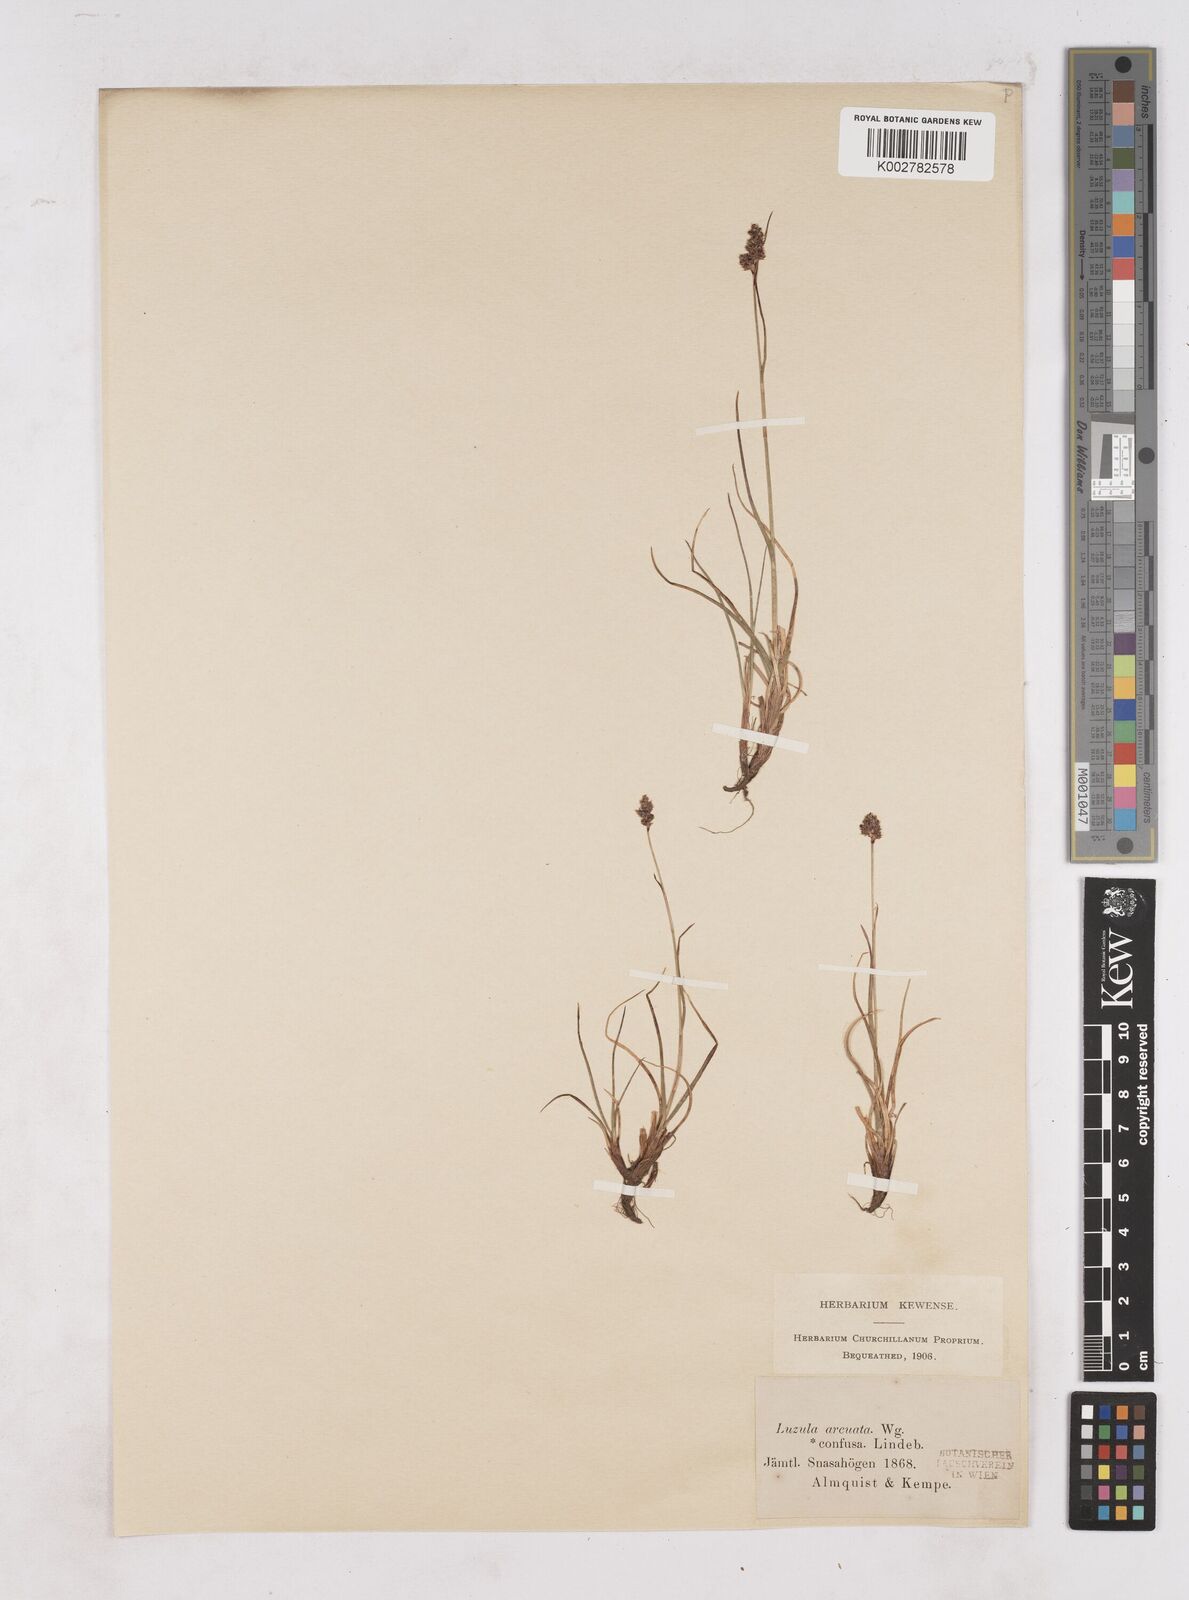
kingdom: Plantae
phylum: Tracheophyta
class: Liliopsida
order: Poales
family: Juncaceae
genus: Luzula
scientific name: Luzula confusa
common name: Northern wood rush
